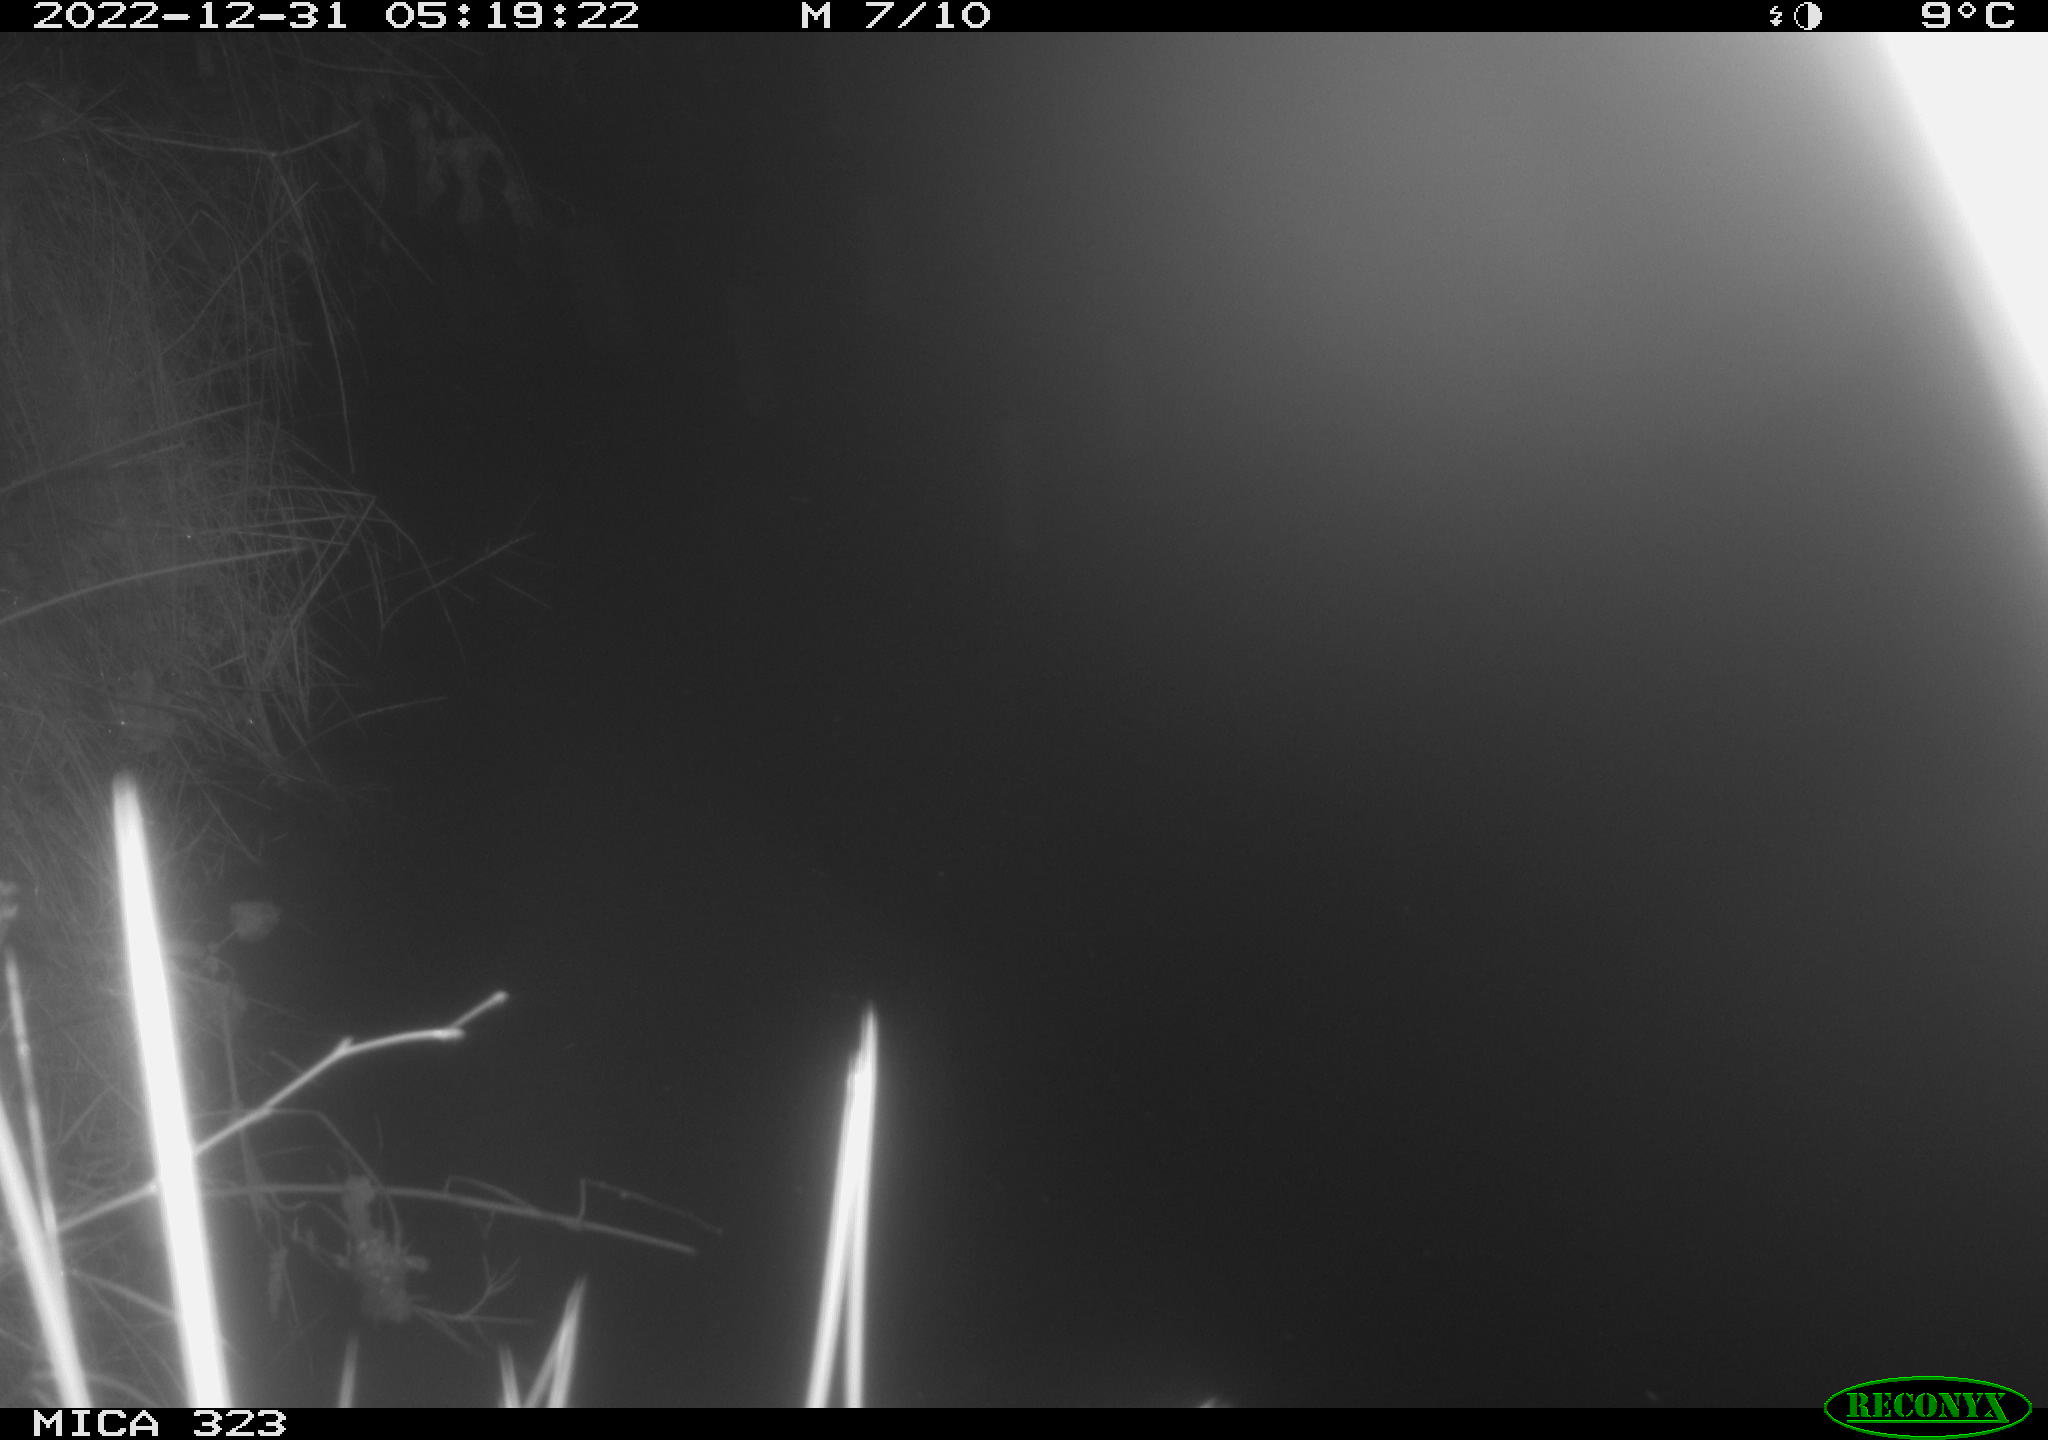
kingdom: Animalia
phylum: Chordata
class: Mammalia
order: Rodentia
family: Cricetidae
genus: Ondatra
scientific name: Ondatra zibethicus
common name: Muskrat
